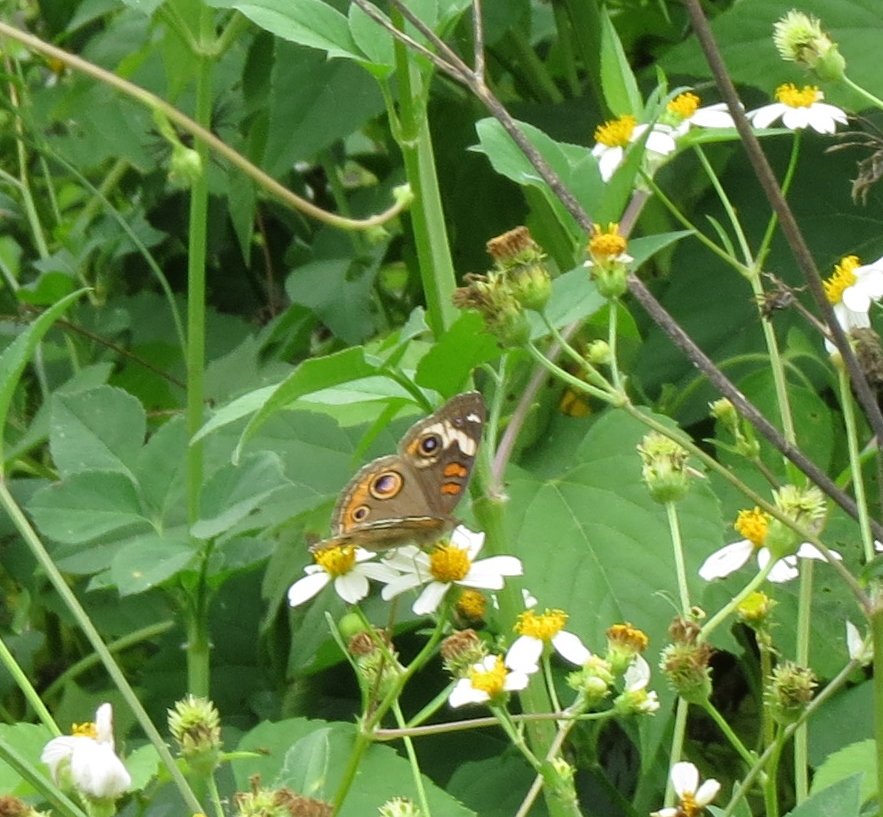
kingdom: Animalia
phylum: Arthropoda
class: Insecta
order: Lepidoptera
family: Nymphalidae
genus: Junonia
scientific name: Junonia coenia
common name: Common Buckeye
